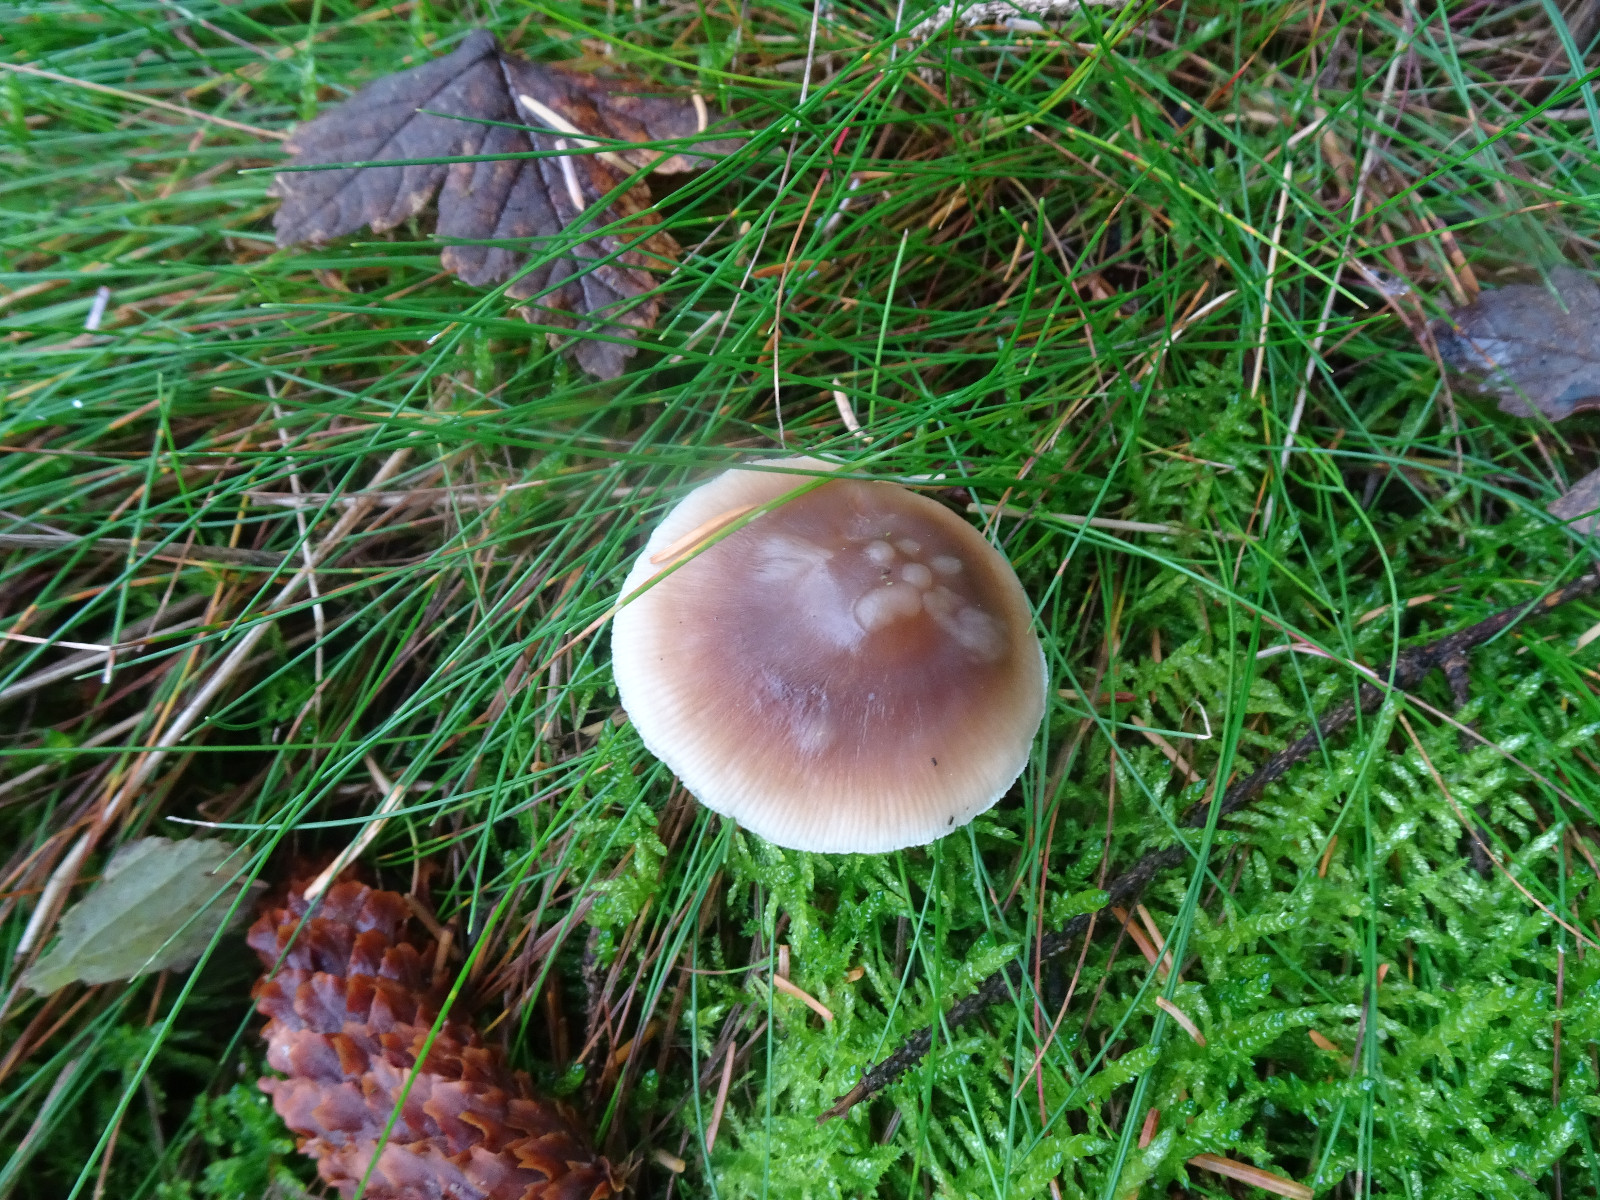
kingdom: Fungi
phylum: Basidiomycota
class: Agaricomycetes
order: Agaricales
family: Omphalotaceae
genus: Rhodocollybia
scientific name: Rhodocollybia butyracea
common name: keglestokket fladhat
